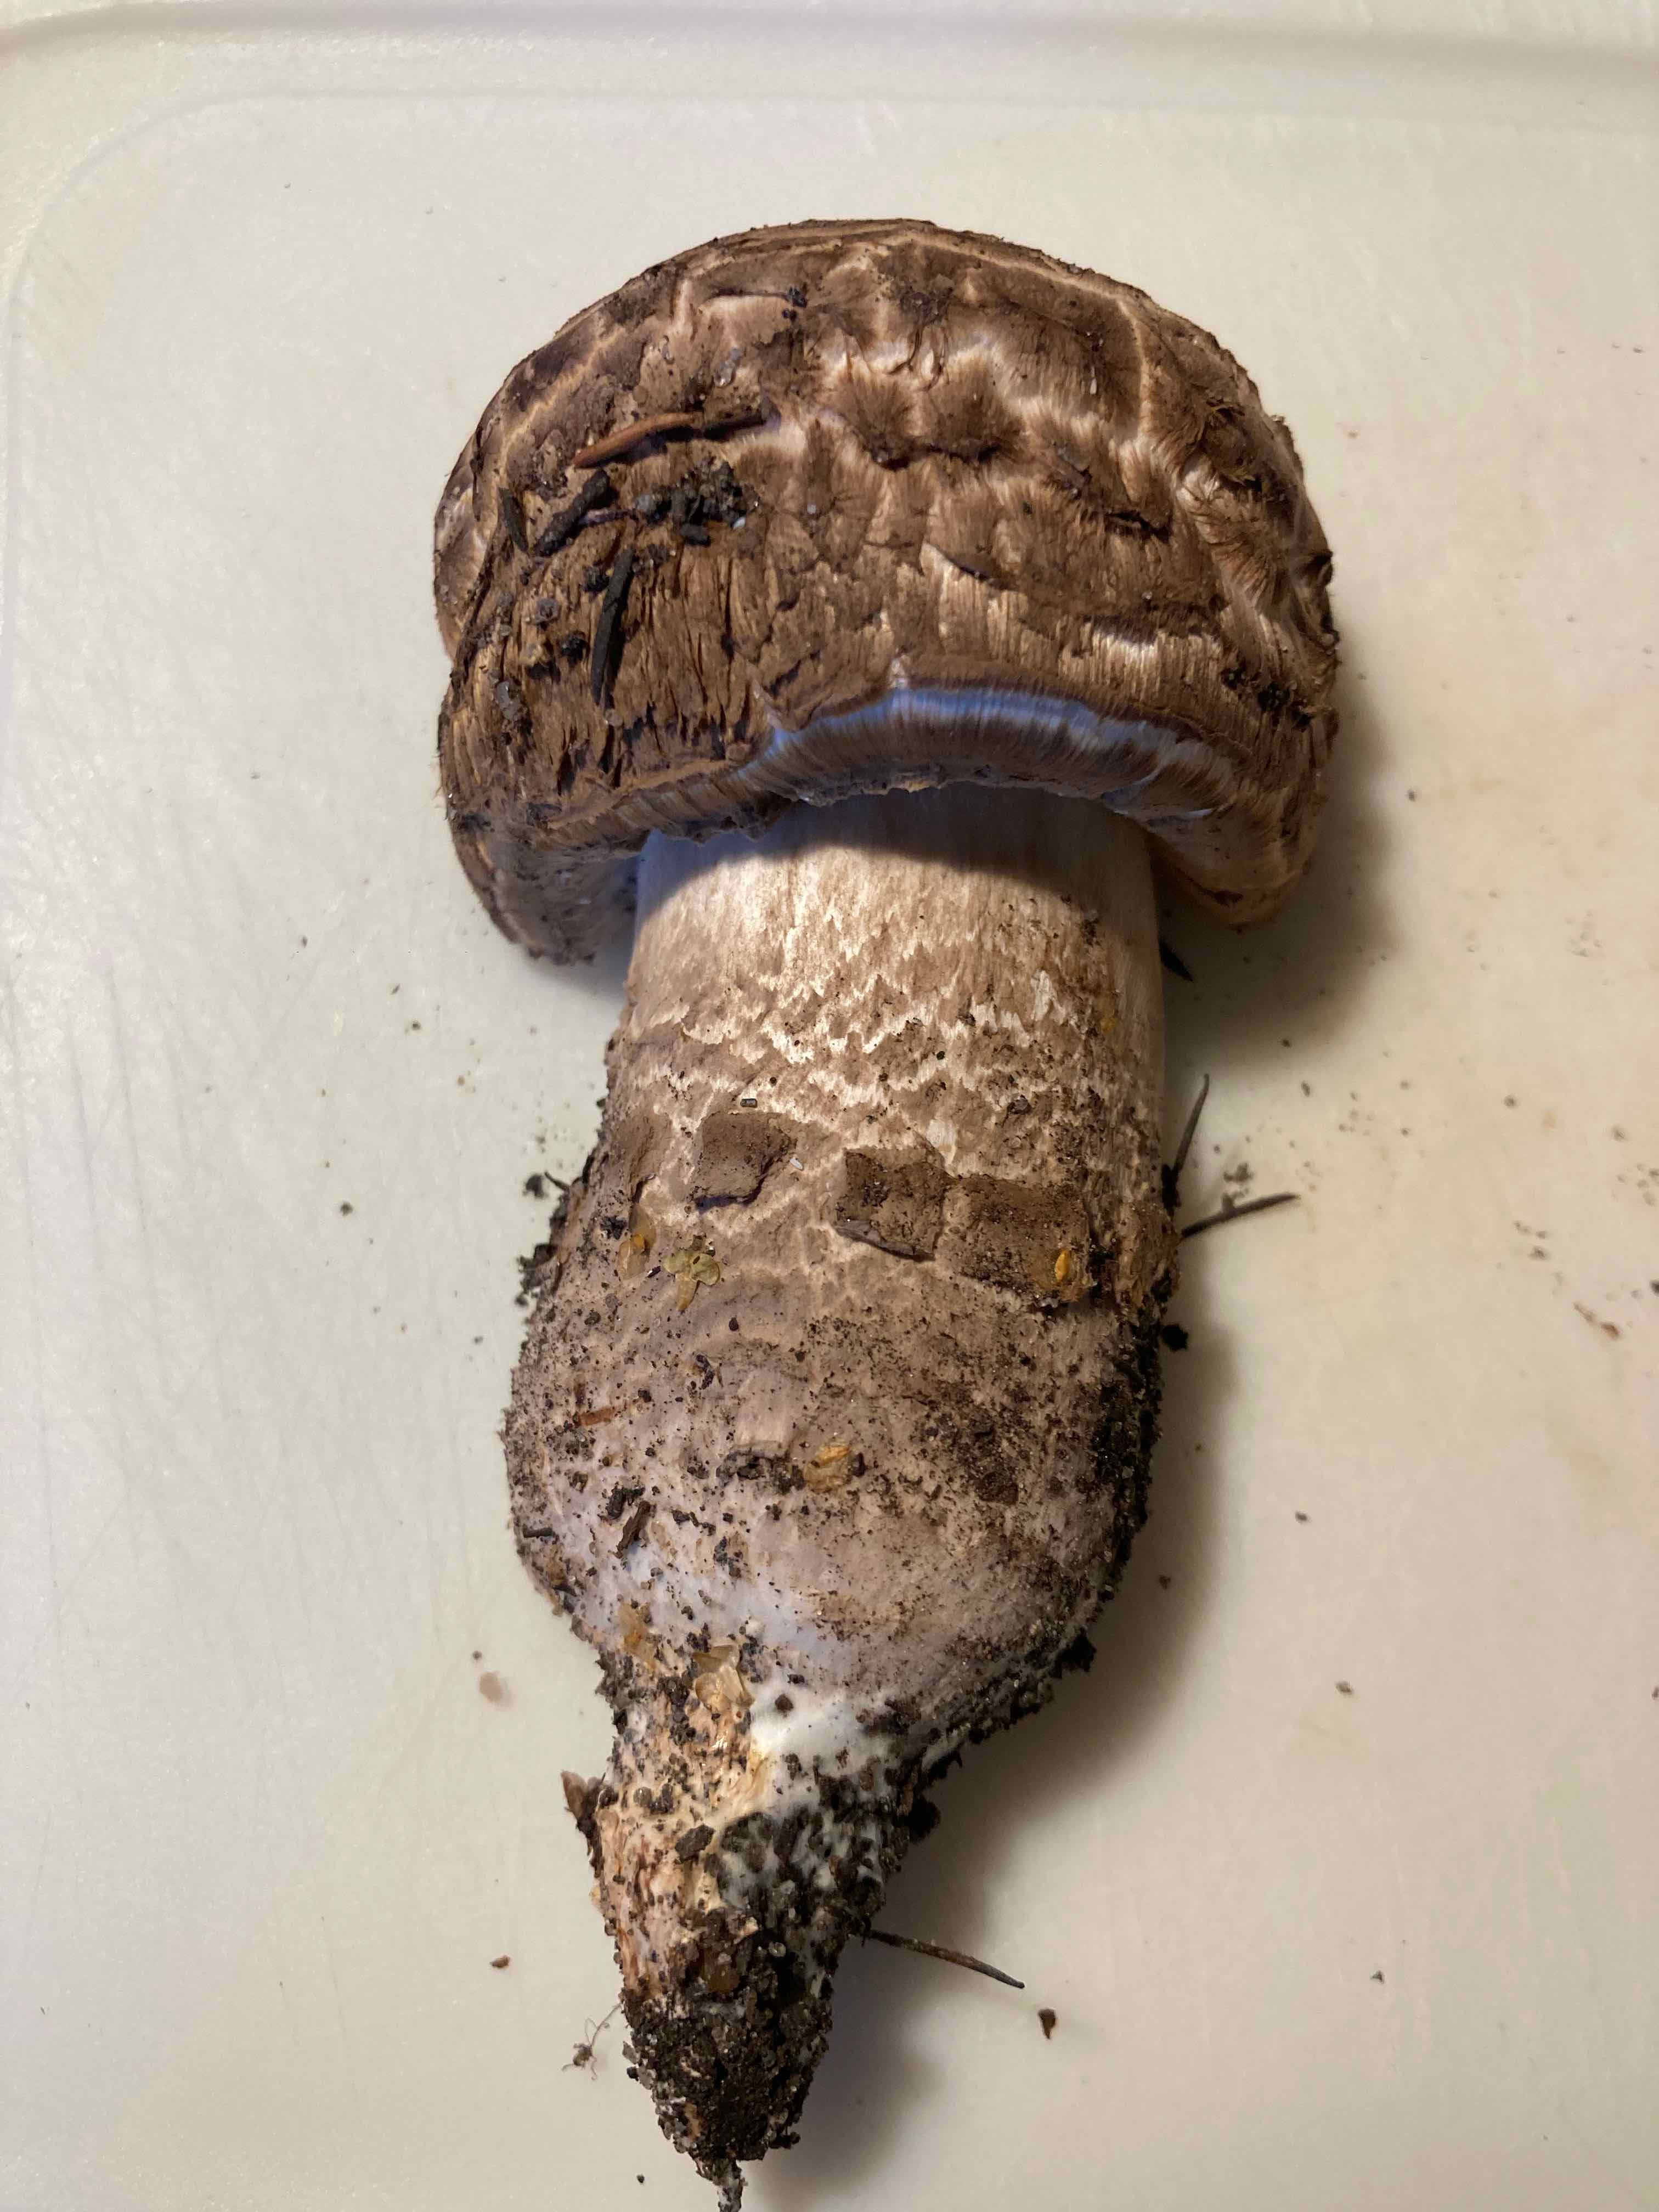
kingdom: Fungi
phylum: Basidiomycota
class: Agaricomycetes
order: Agaricales
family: Agaricaceae
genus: Agaricus
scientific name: Agaricus bohusii
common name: krumskællet champignon
